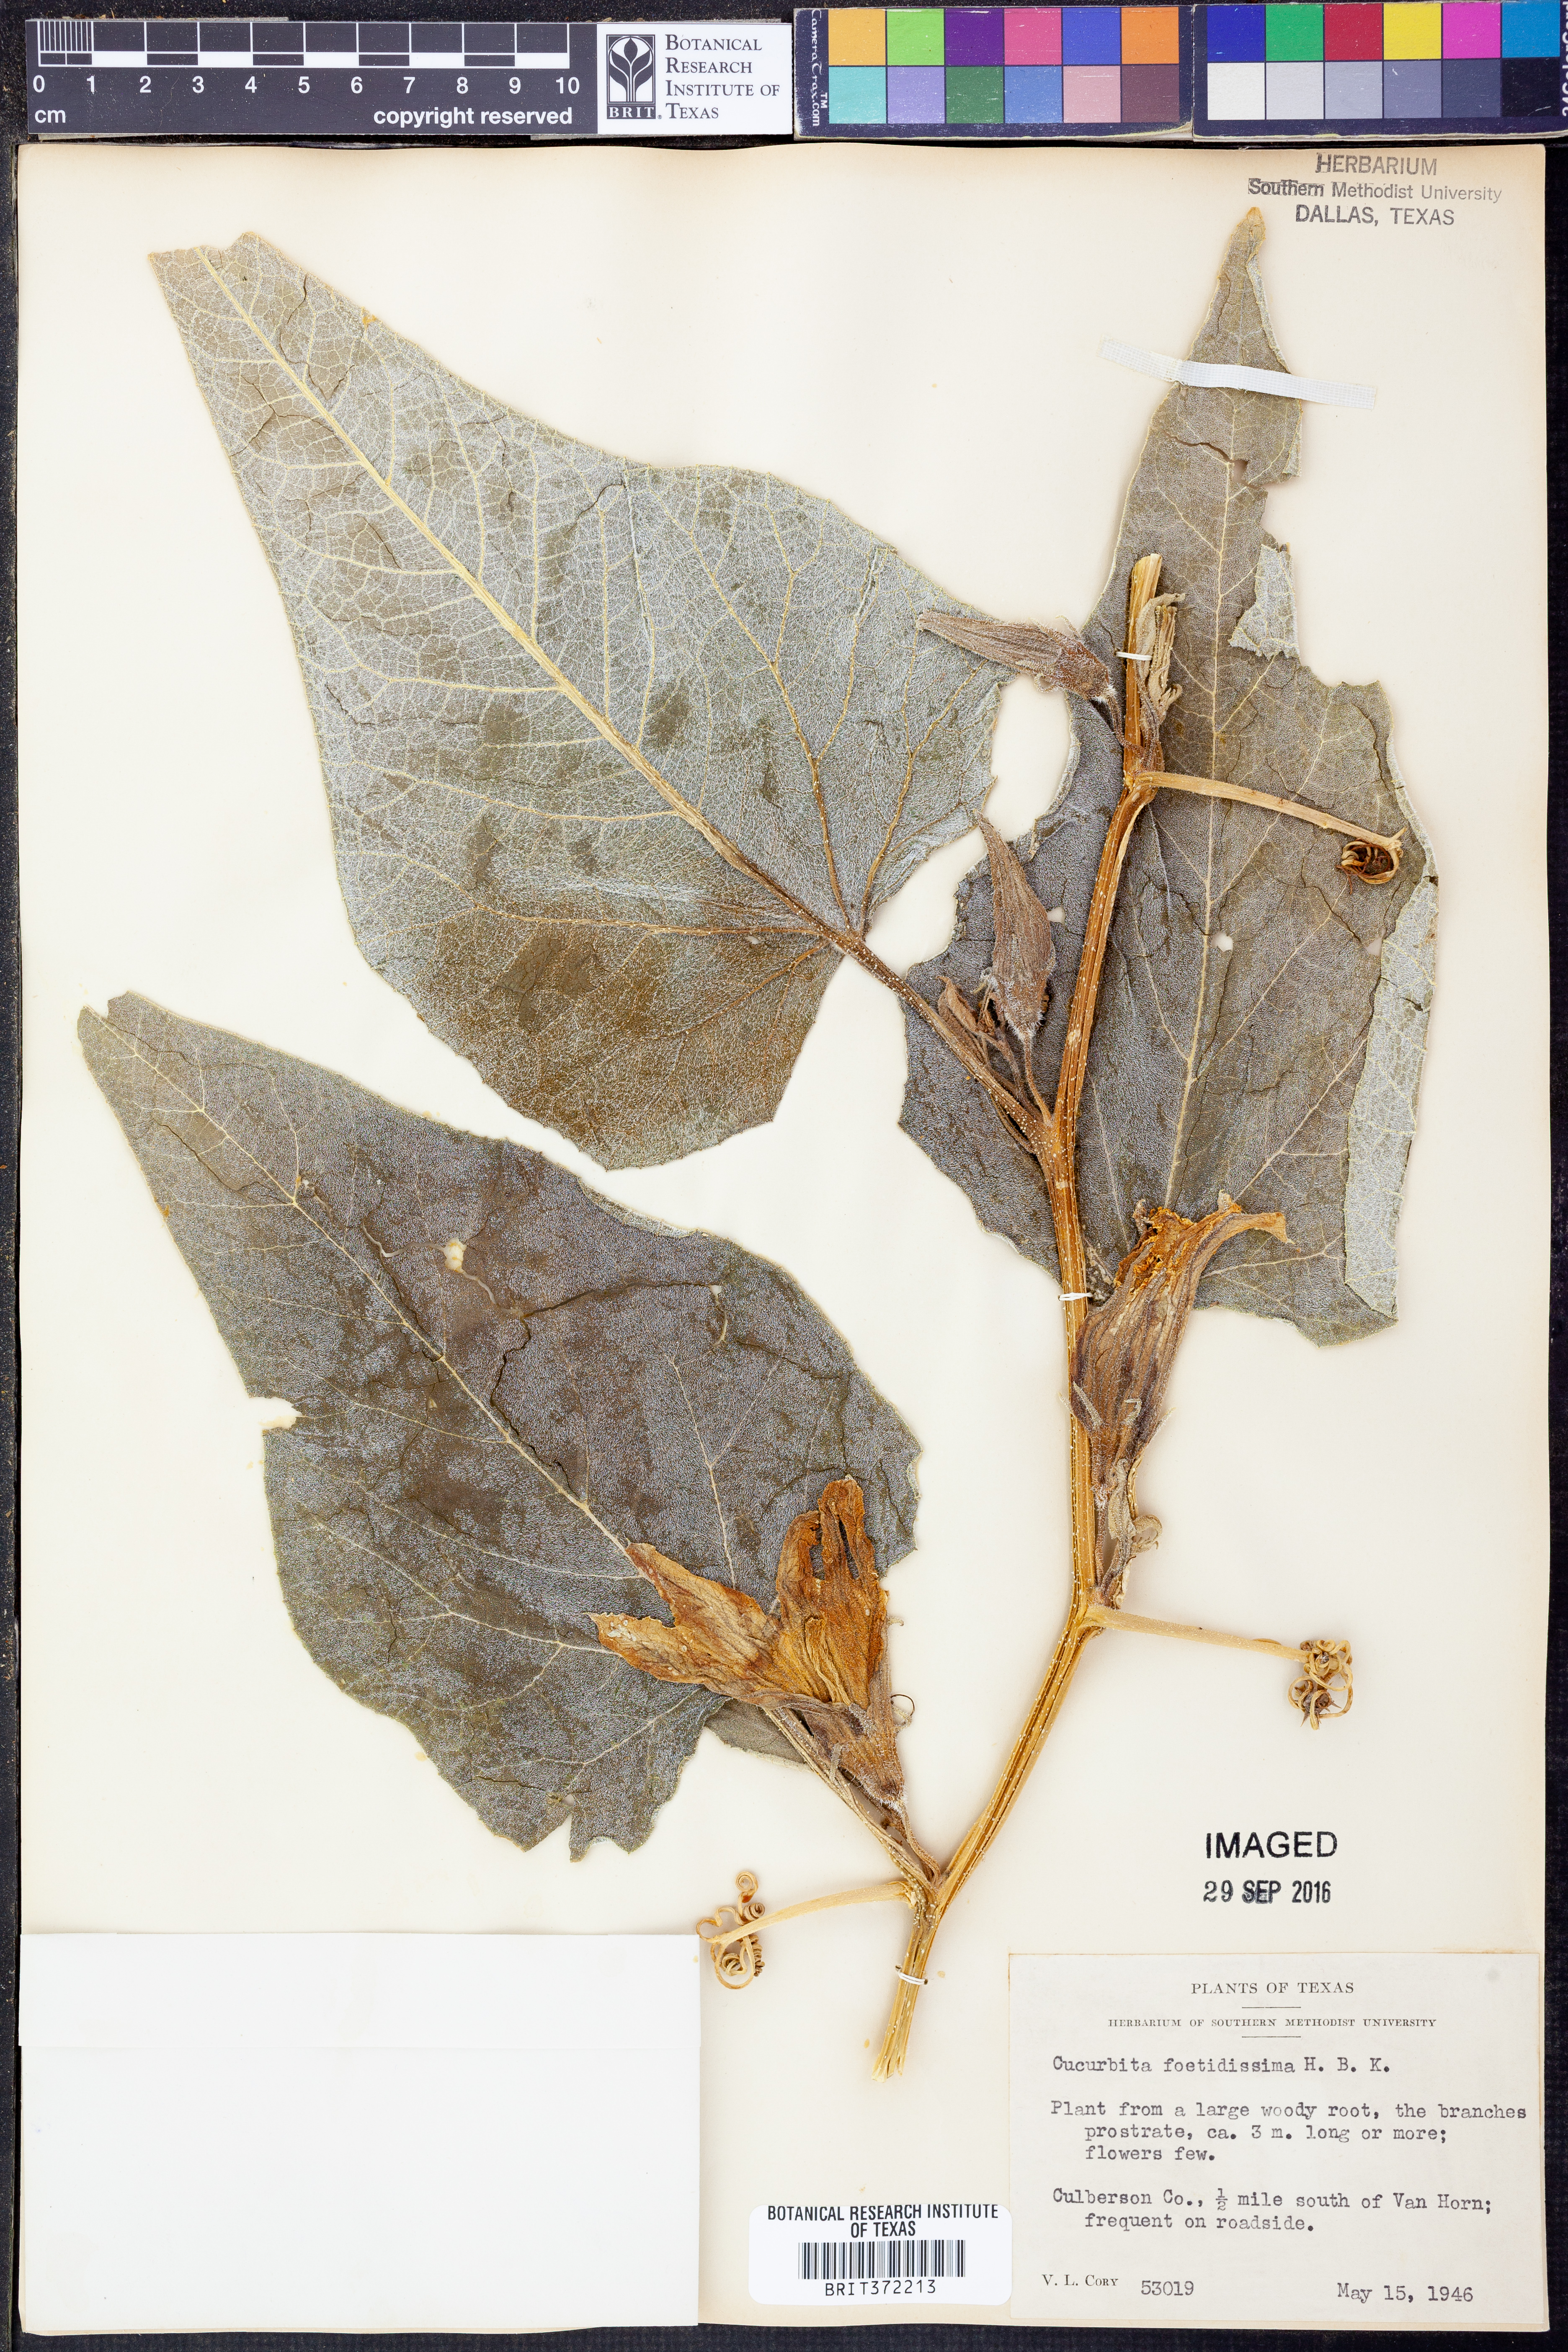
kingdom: Plantae
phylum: Tracheophyta
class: Magnoliopsida
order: Cucurbitales
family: Cucurbitaceae
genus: Cucurbita
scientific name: Cucurbita foetidissima
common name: Buffalo gourd
